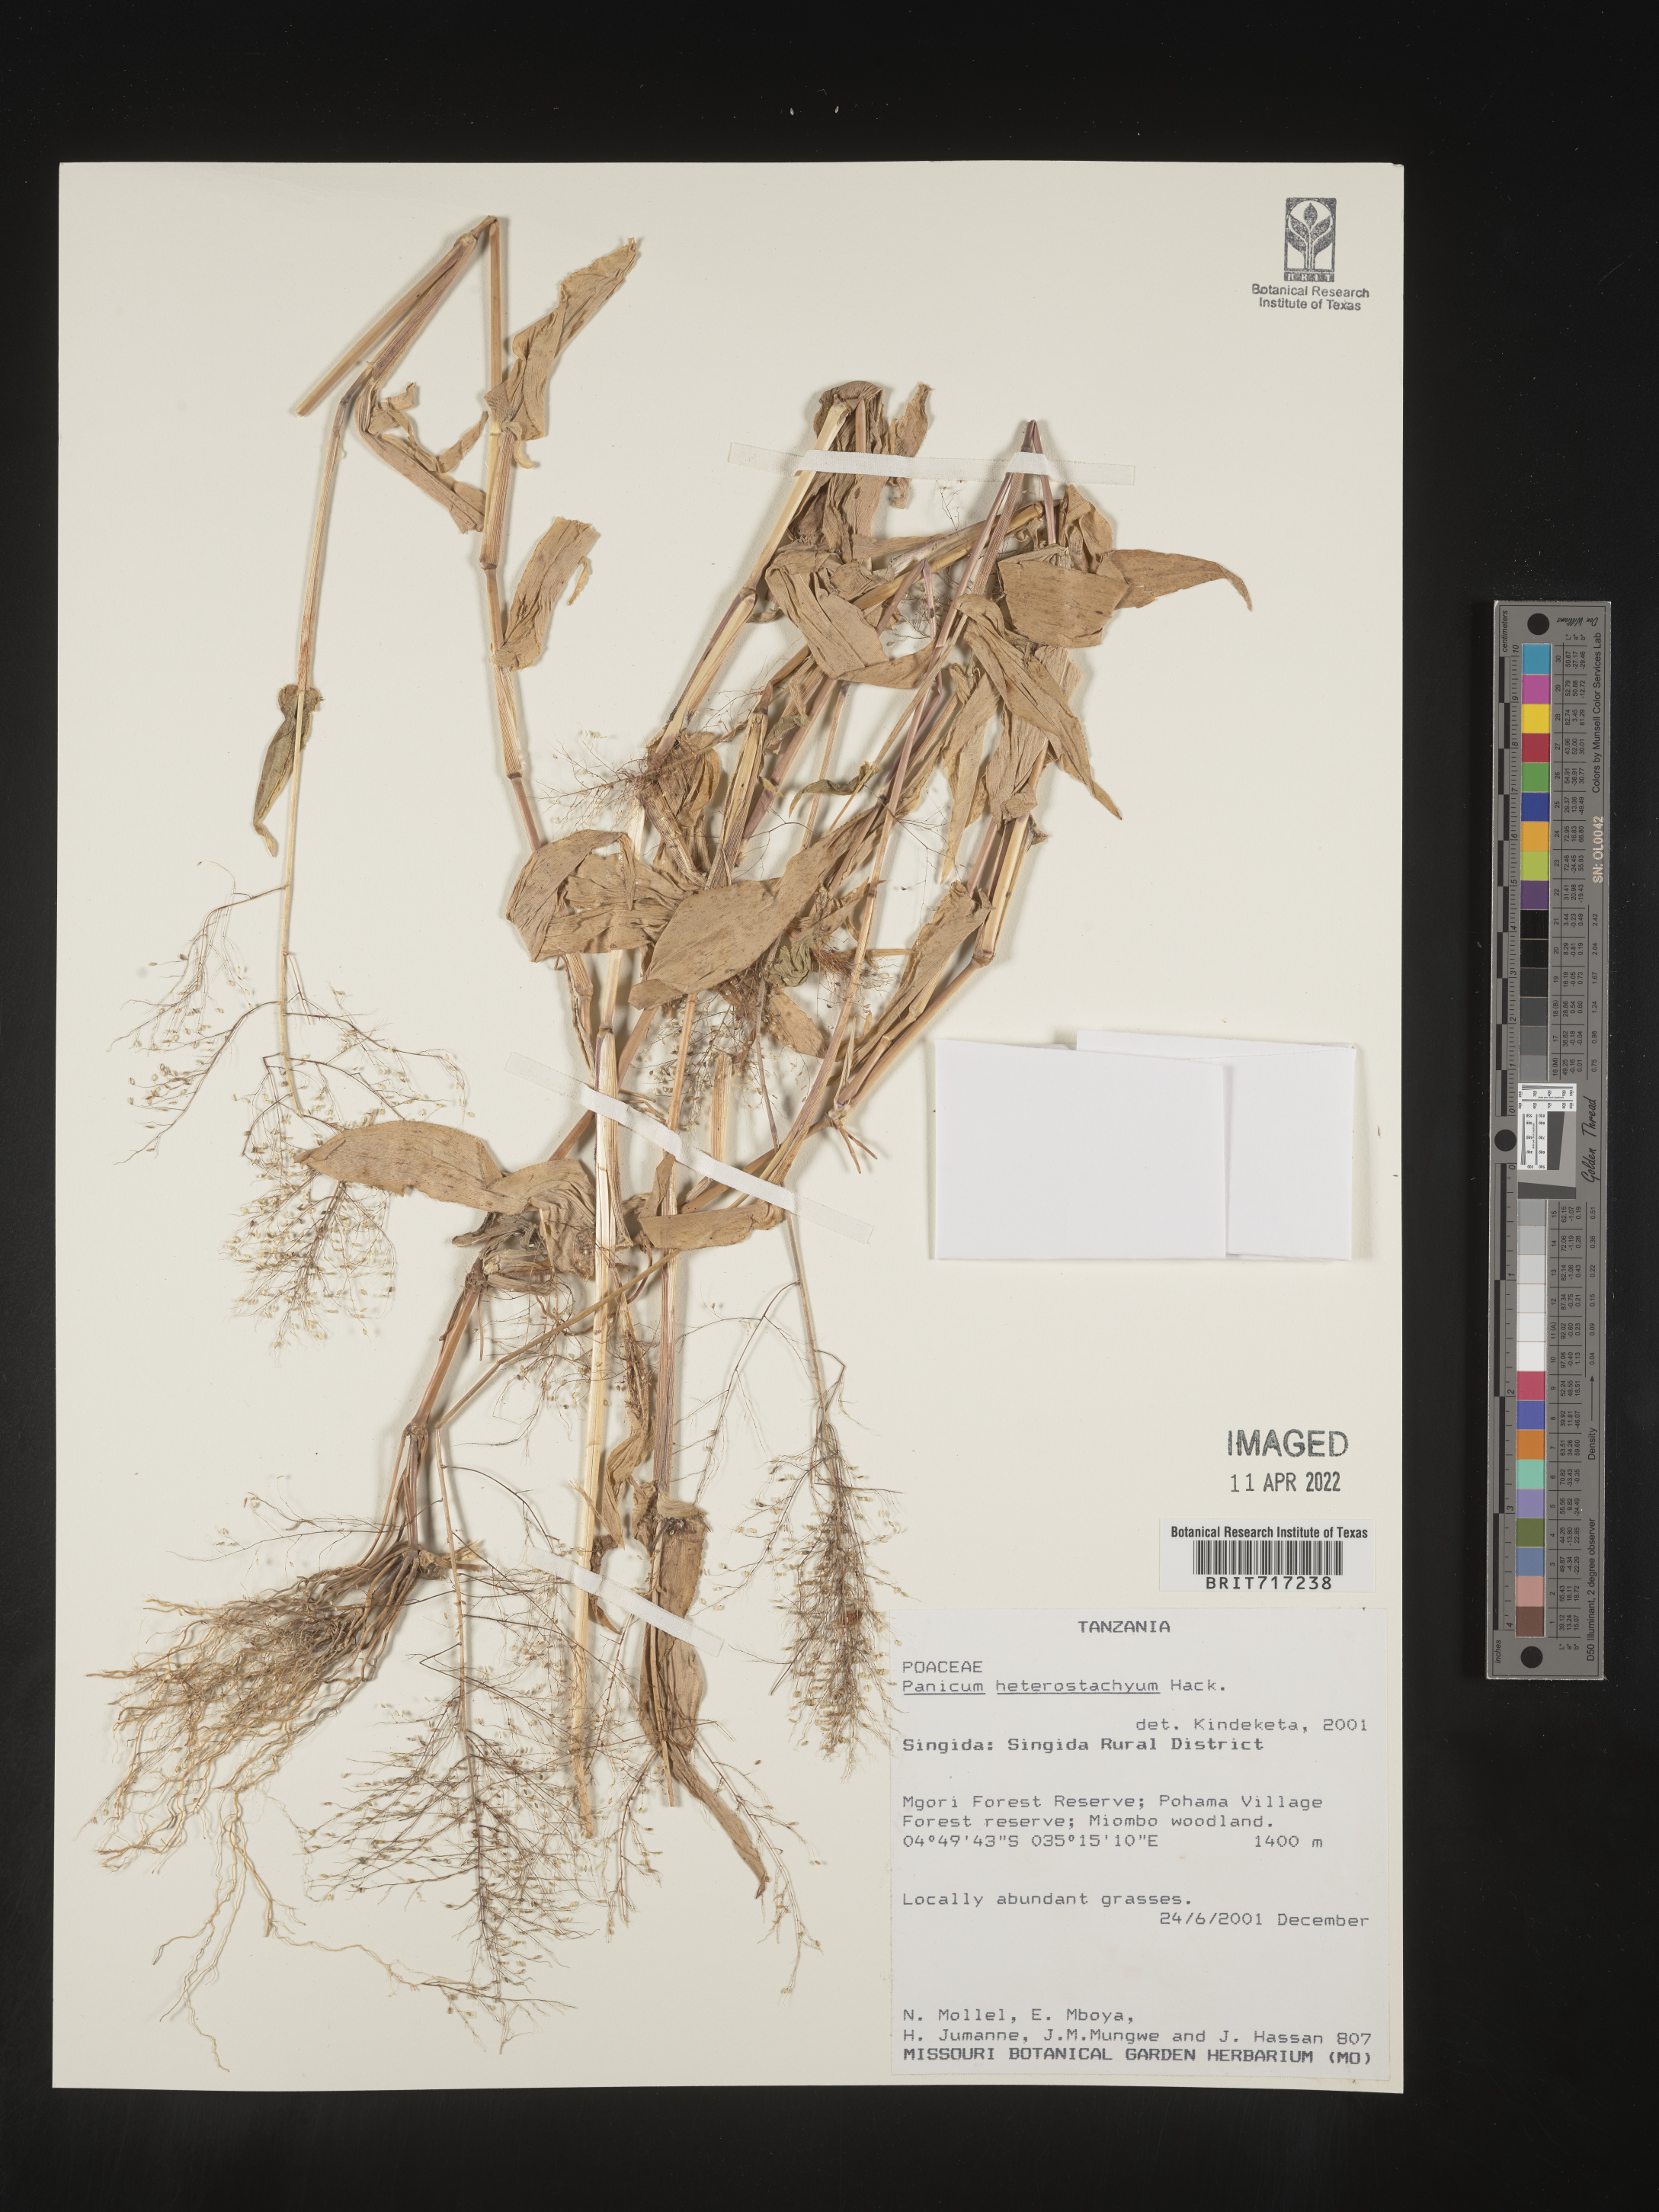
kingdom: Plantae
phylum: Tracheophyta
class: Liliopsida
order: Poales
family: Poaceae
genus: Panicum
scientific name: Panicum
